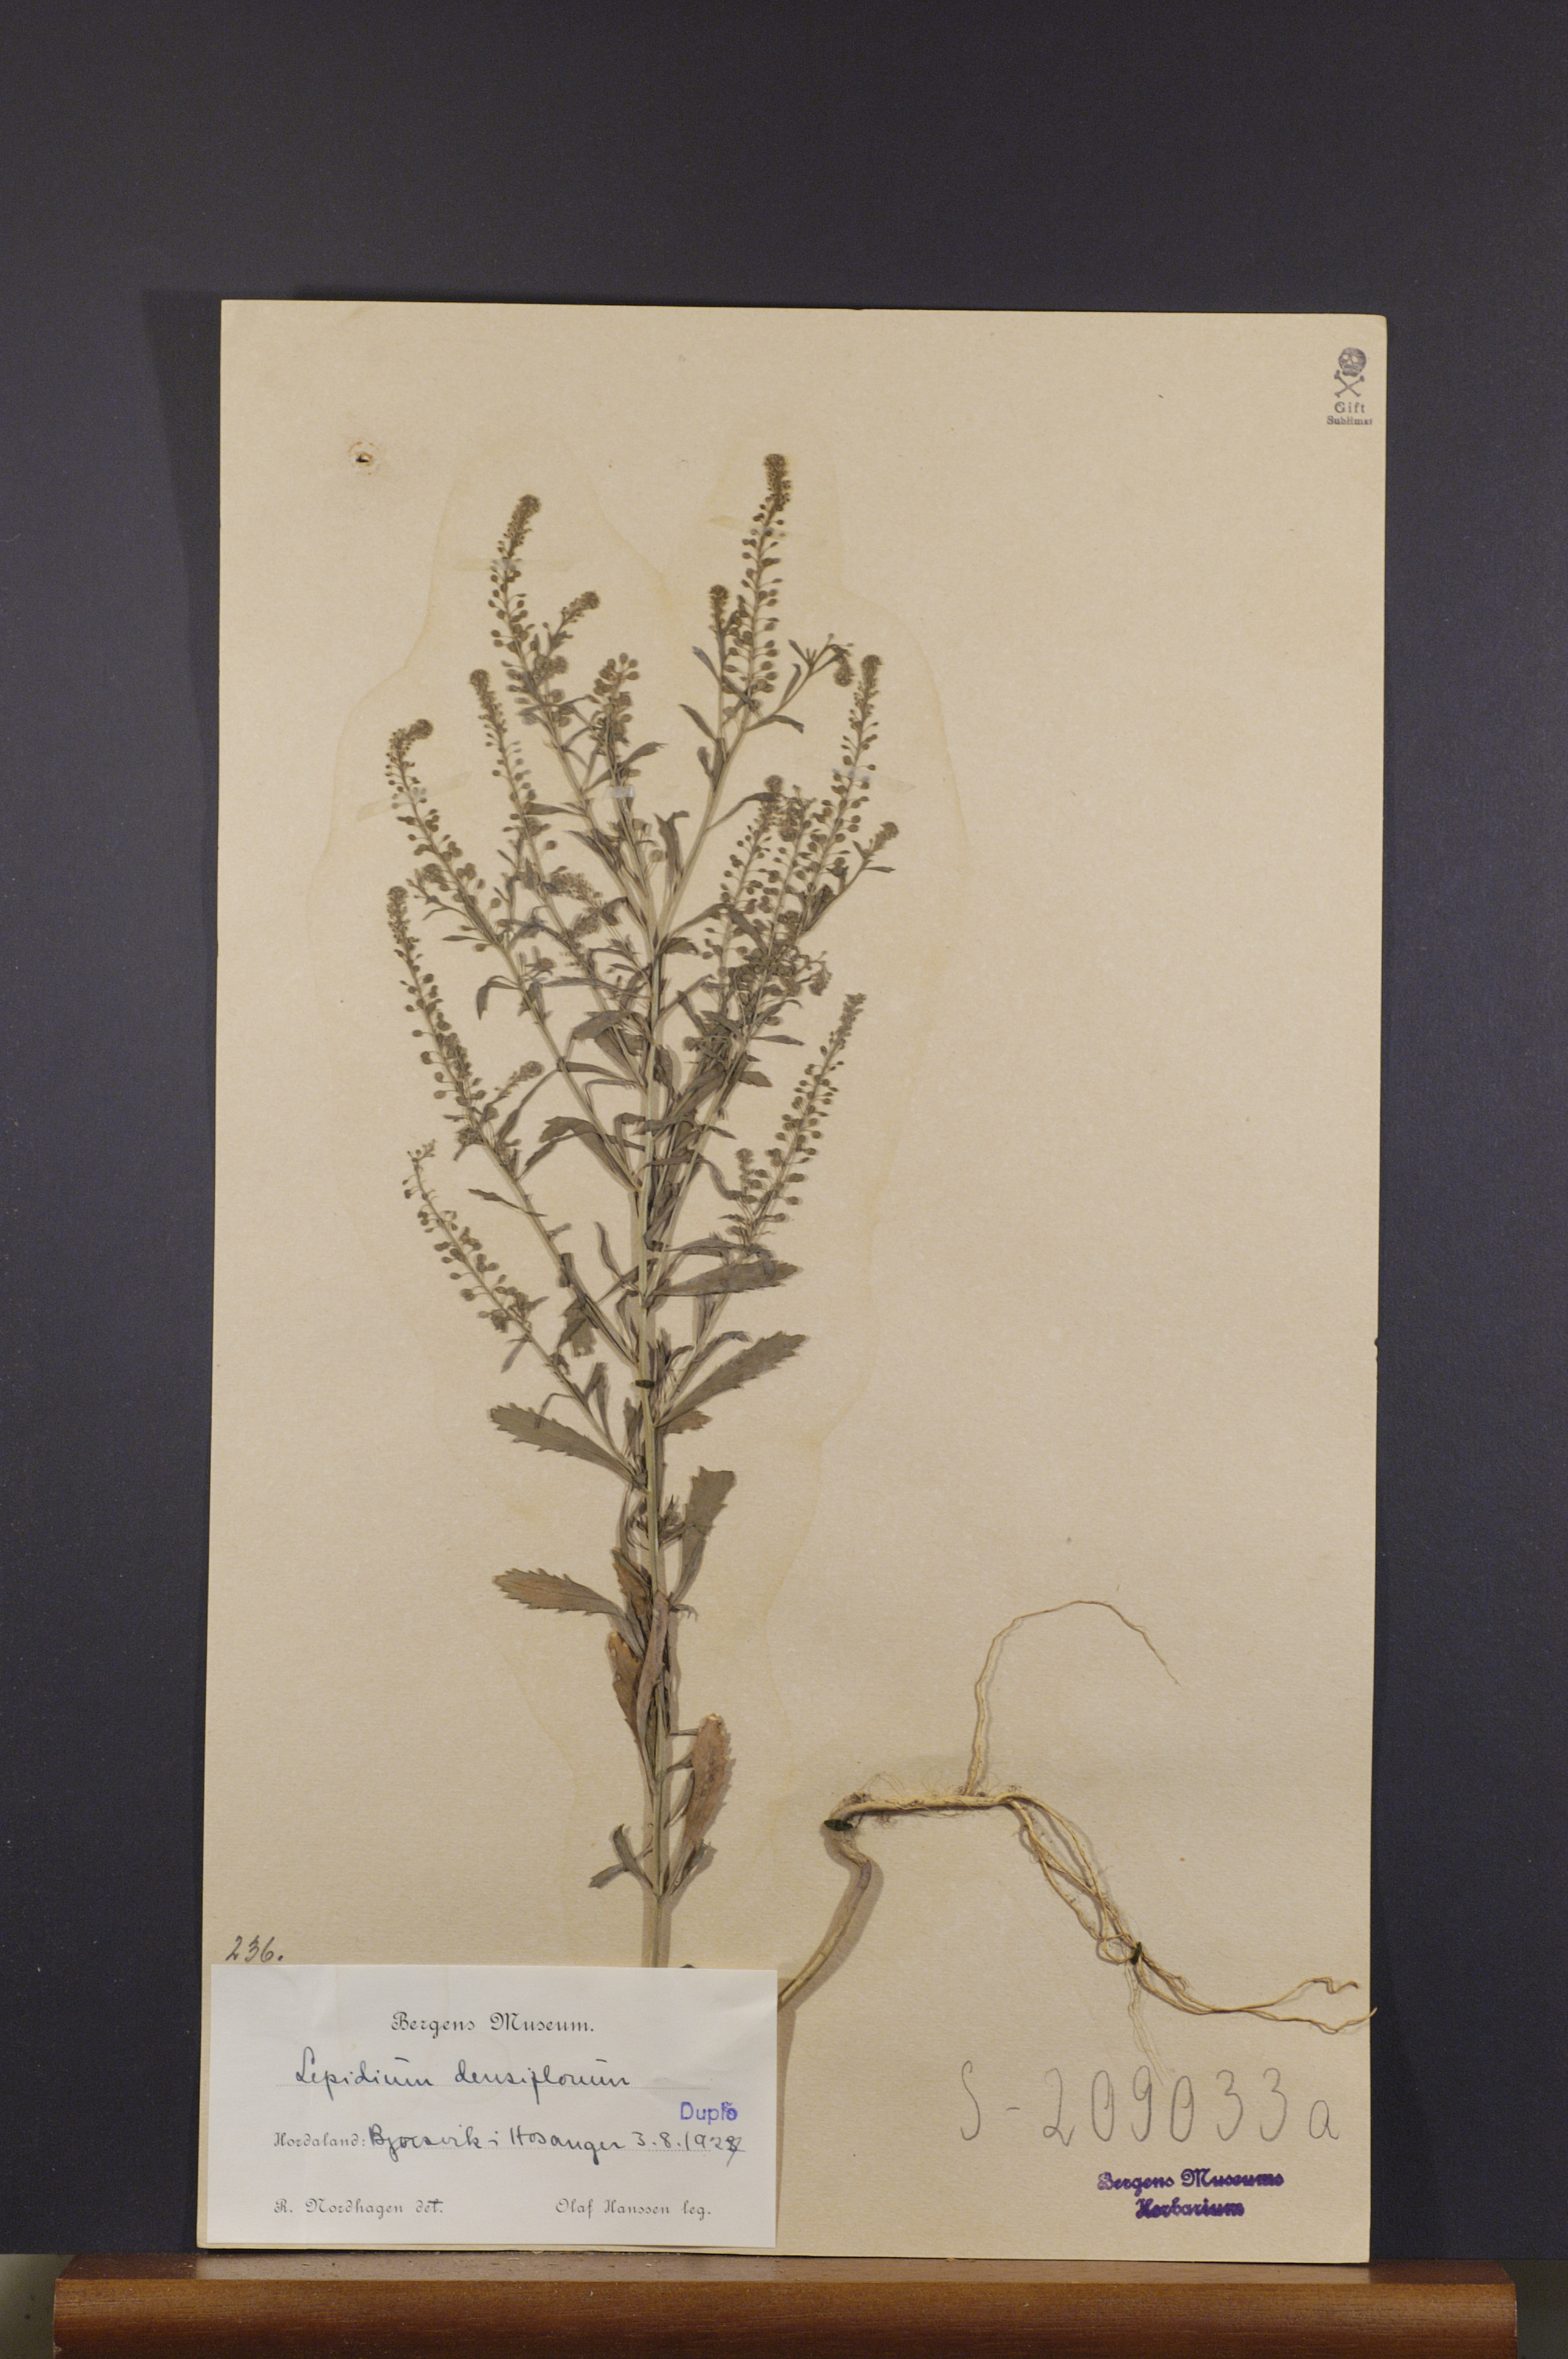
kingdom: Plantae
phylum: Tracheophyta
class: Magnoliopsida
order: Brassicales
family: Brassicaceae
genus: Lepidium
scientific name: Lepidium densiflorum
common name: Miner's pepperwort
